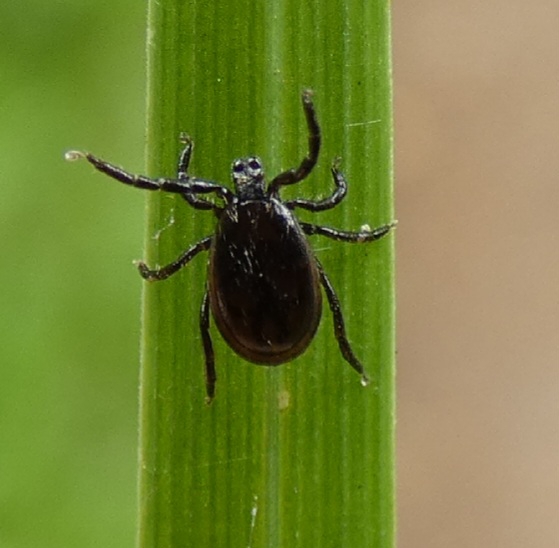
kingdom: Animalia
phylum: Arthropoda
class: Arachnida
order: Ixodida
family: Ixodidae
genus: Ixodes
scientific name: Ixodes ricinus
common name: Skovflåt
